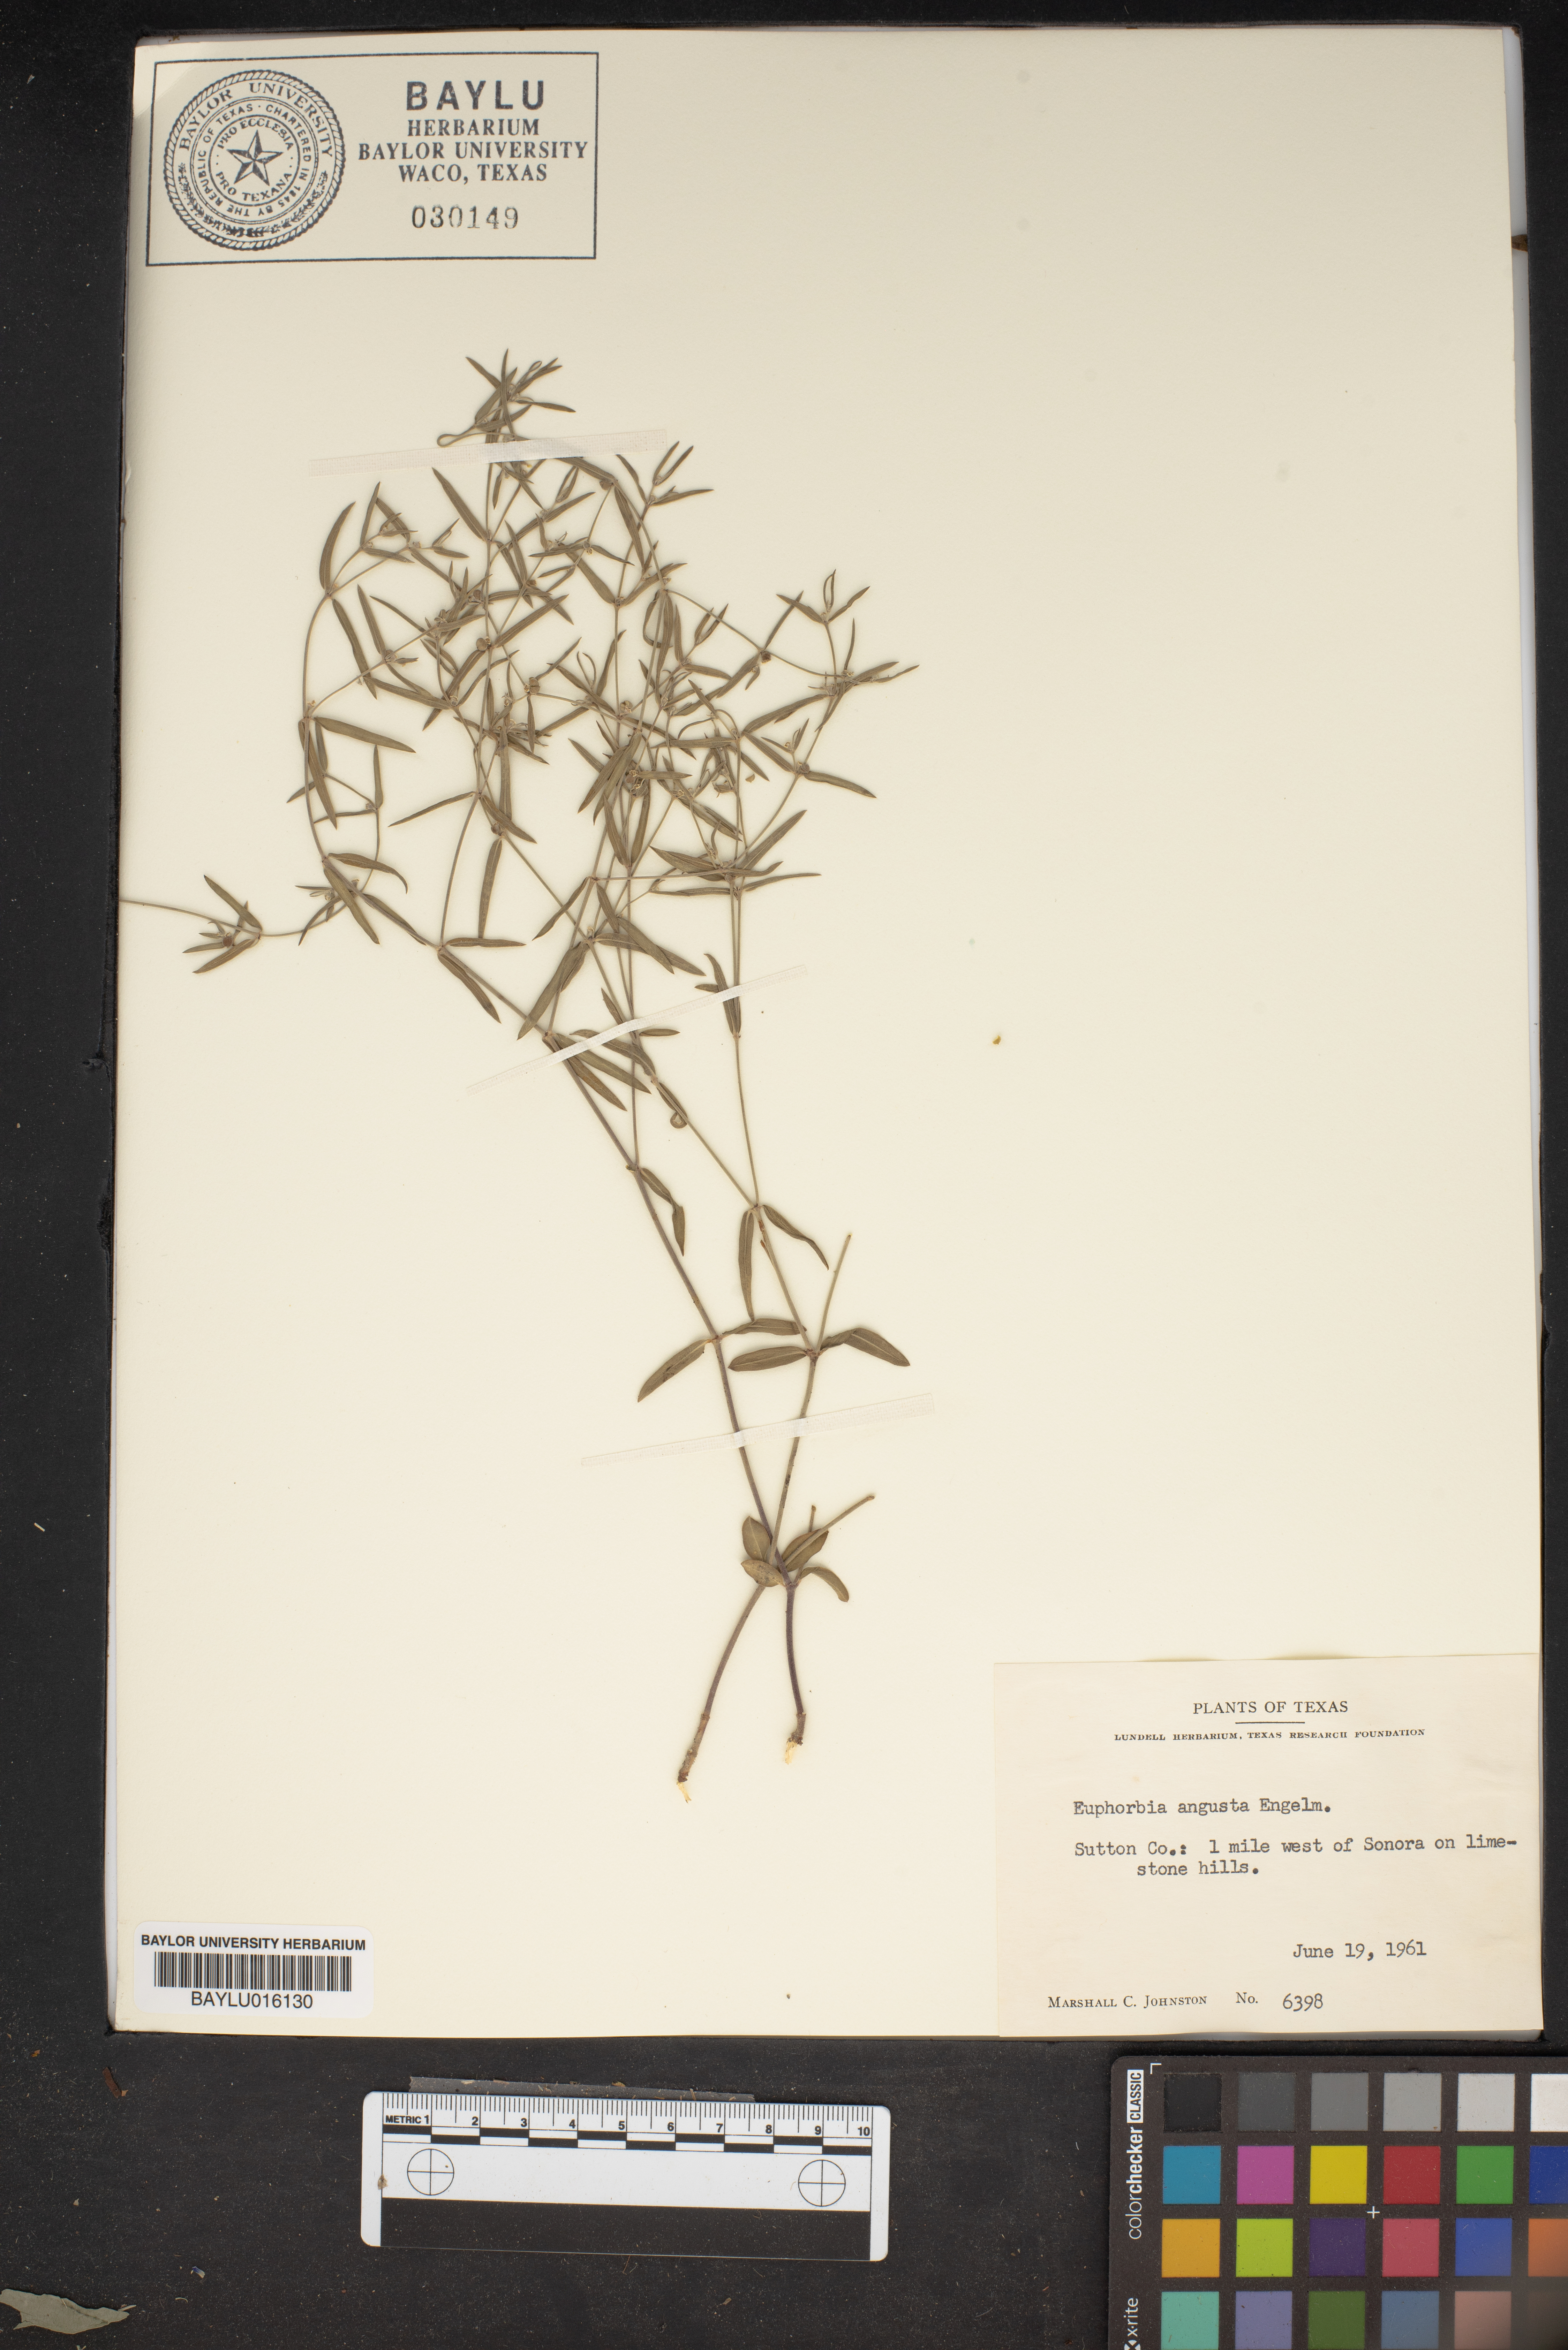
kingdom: Plantae
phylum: Tracheophyta
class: Magnoliopsida
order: Malpighiales
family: Euphorbiaceae
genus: Euphorbia
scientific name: Euphorbia angusta
